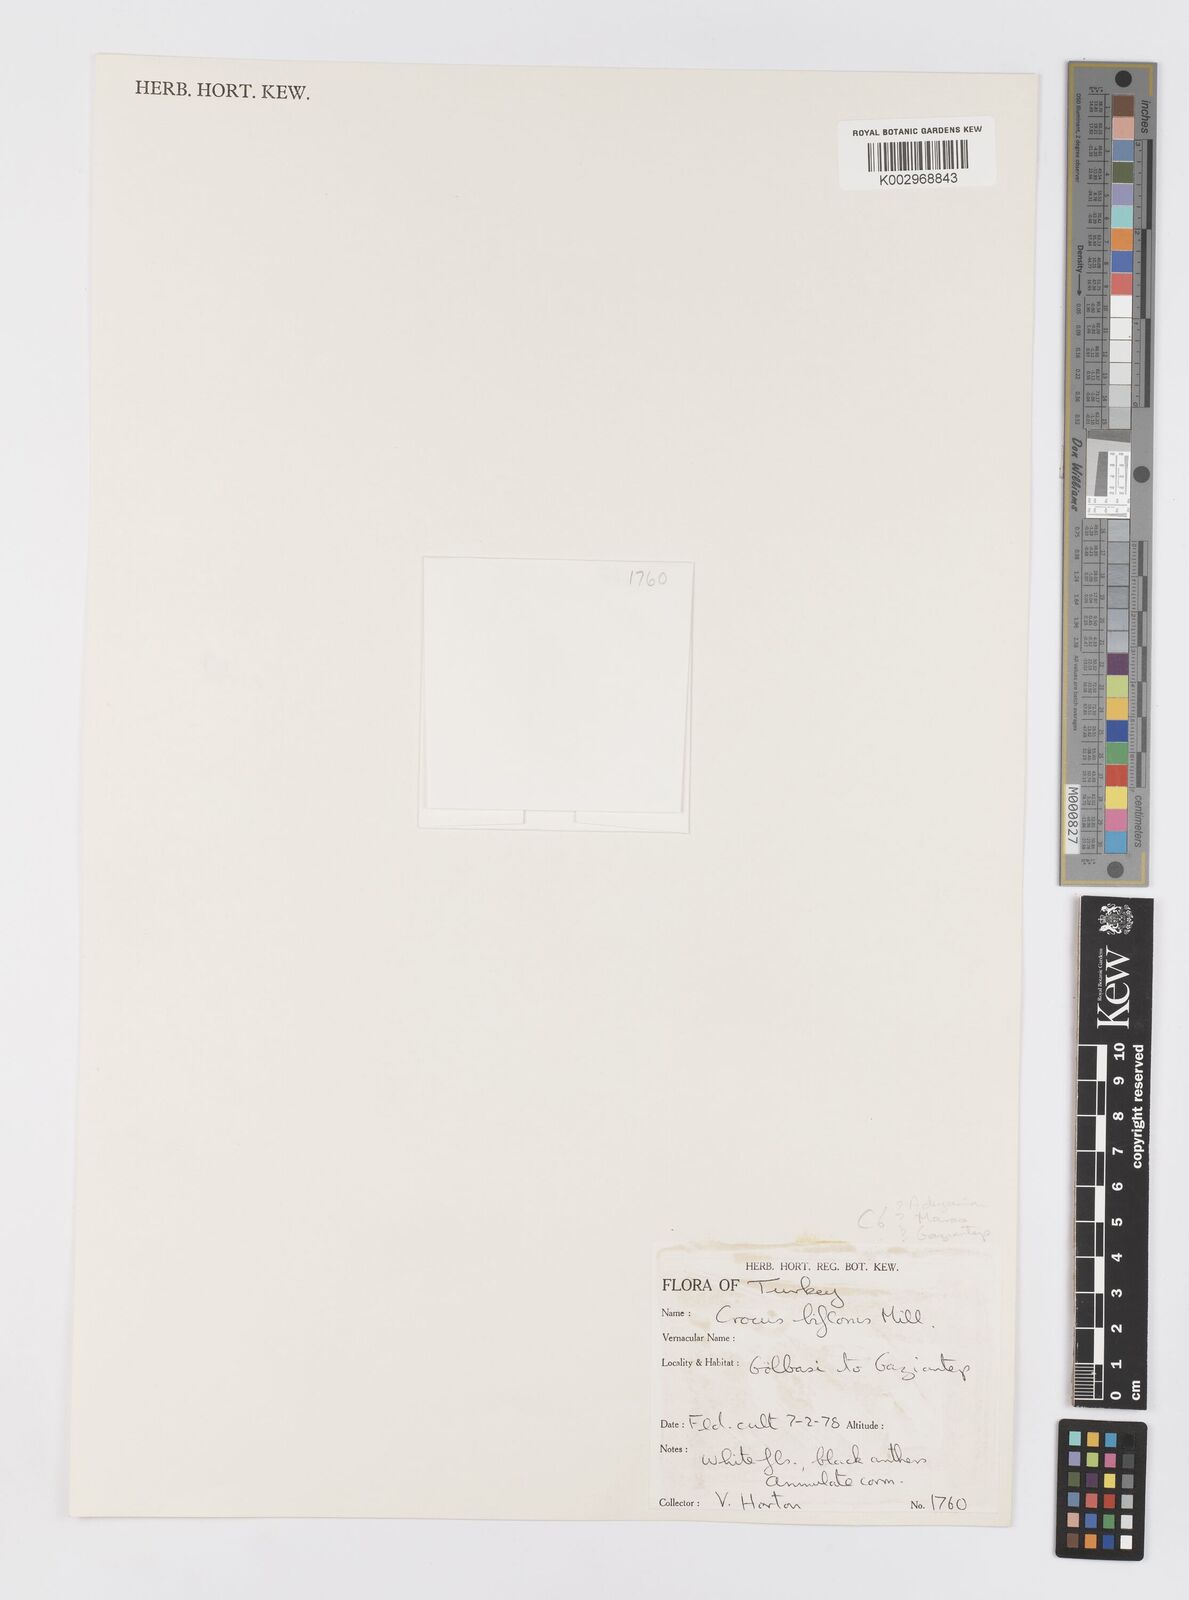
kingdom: Plantae
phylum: Tracheophyta
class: Liliopsida
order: Asparagales
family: Iridaceae
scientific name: Iridaceae
